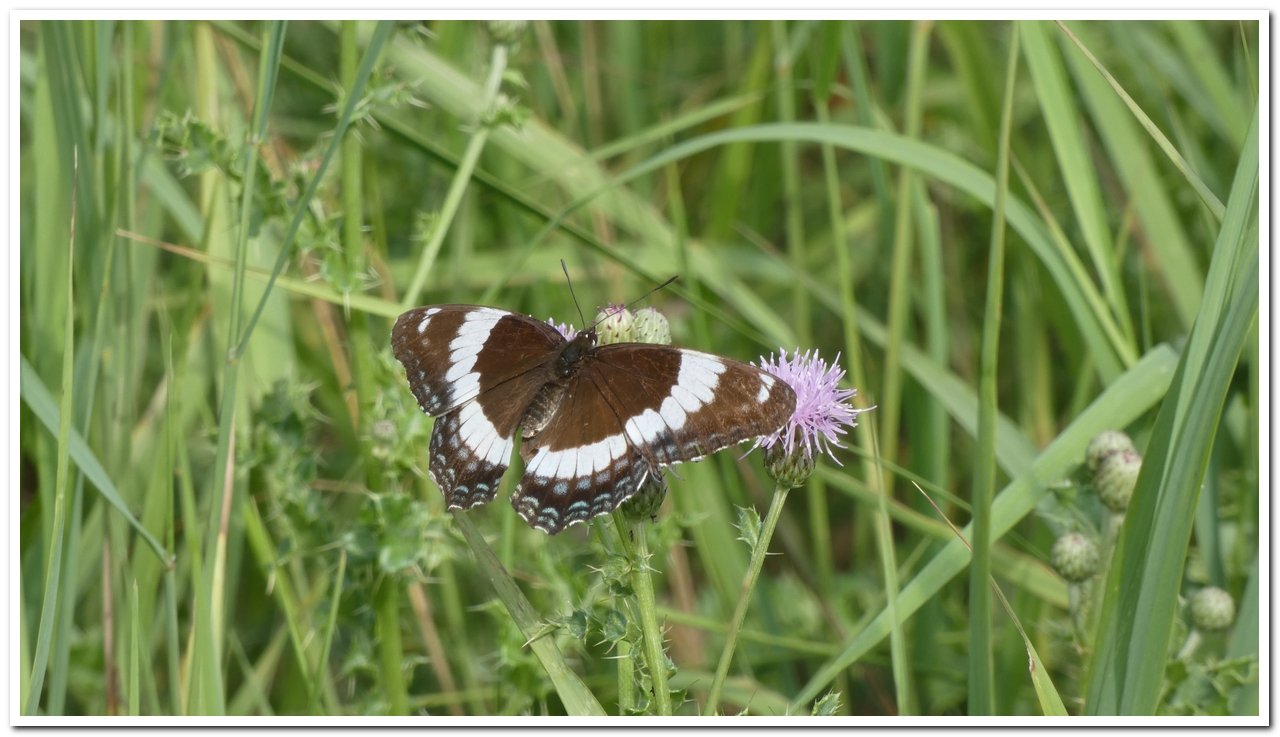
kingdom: Animalia
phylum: Arthropoda
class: Insecta
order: Lepidoptera
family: Nymphalidae
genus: Limenitis
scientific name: Limenitis arthemis
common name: Red-spotted Admiral
